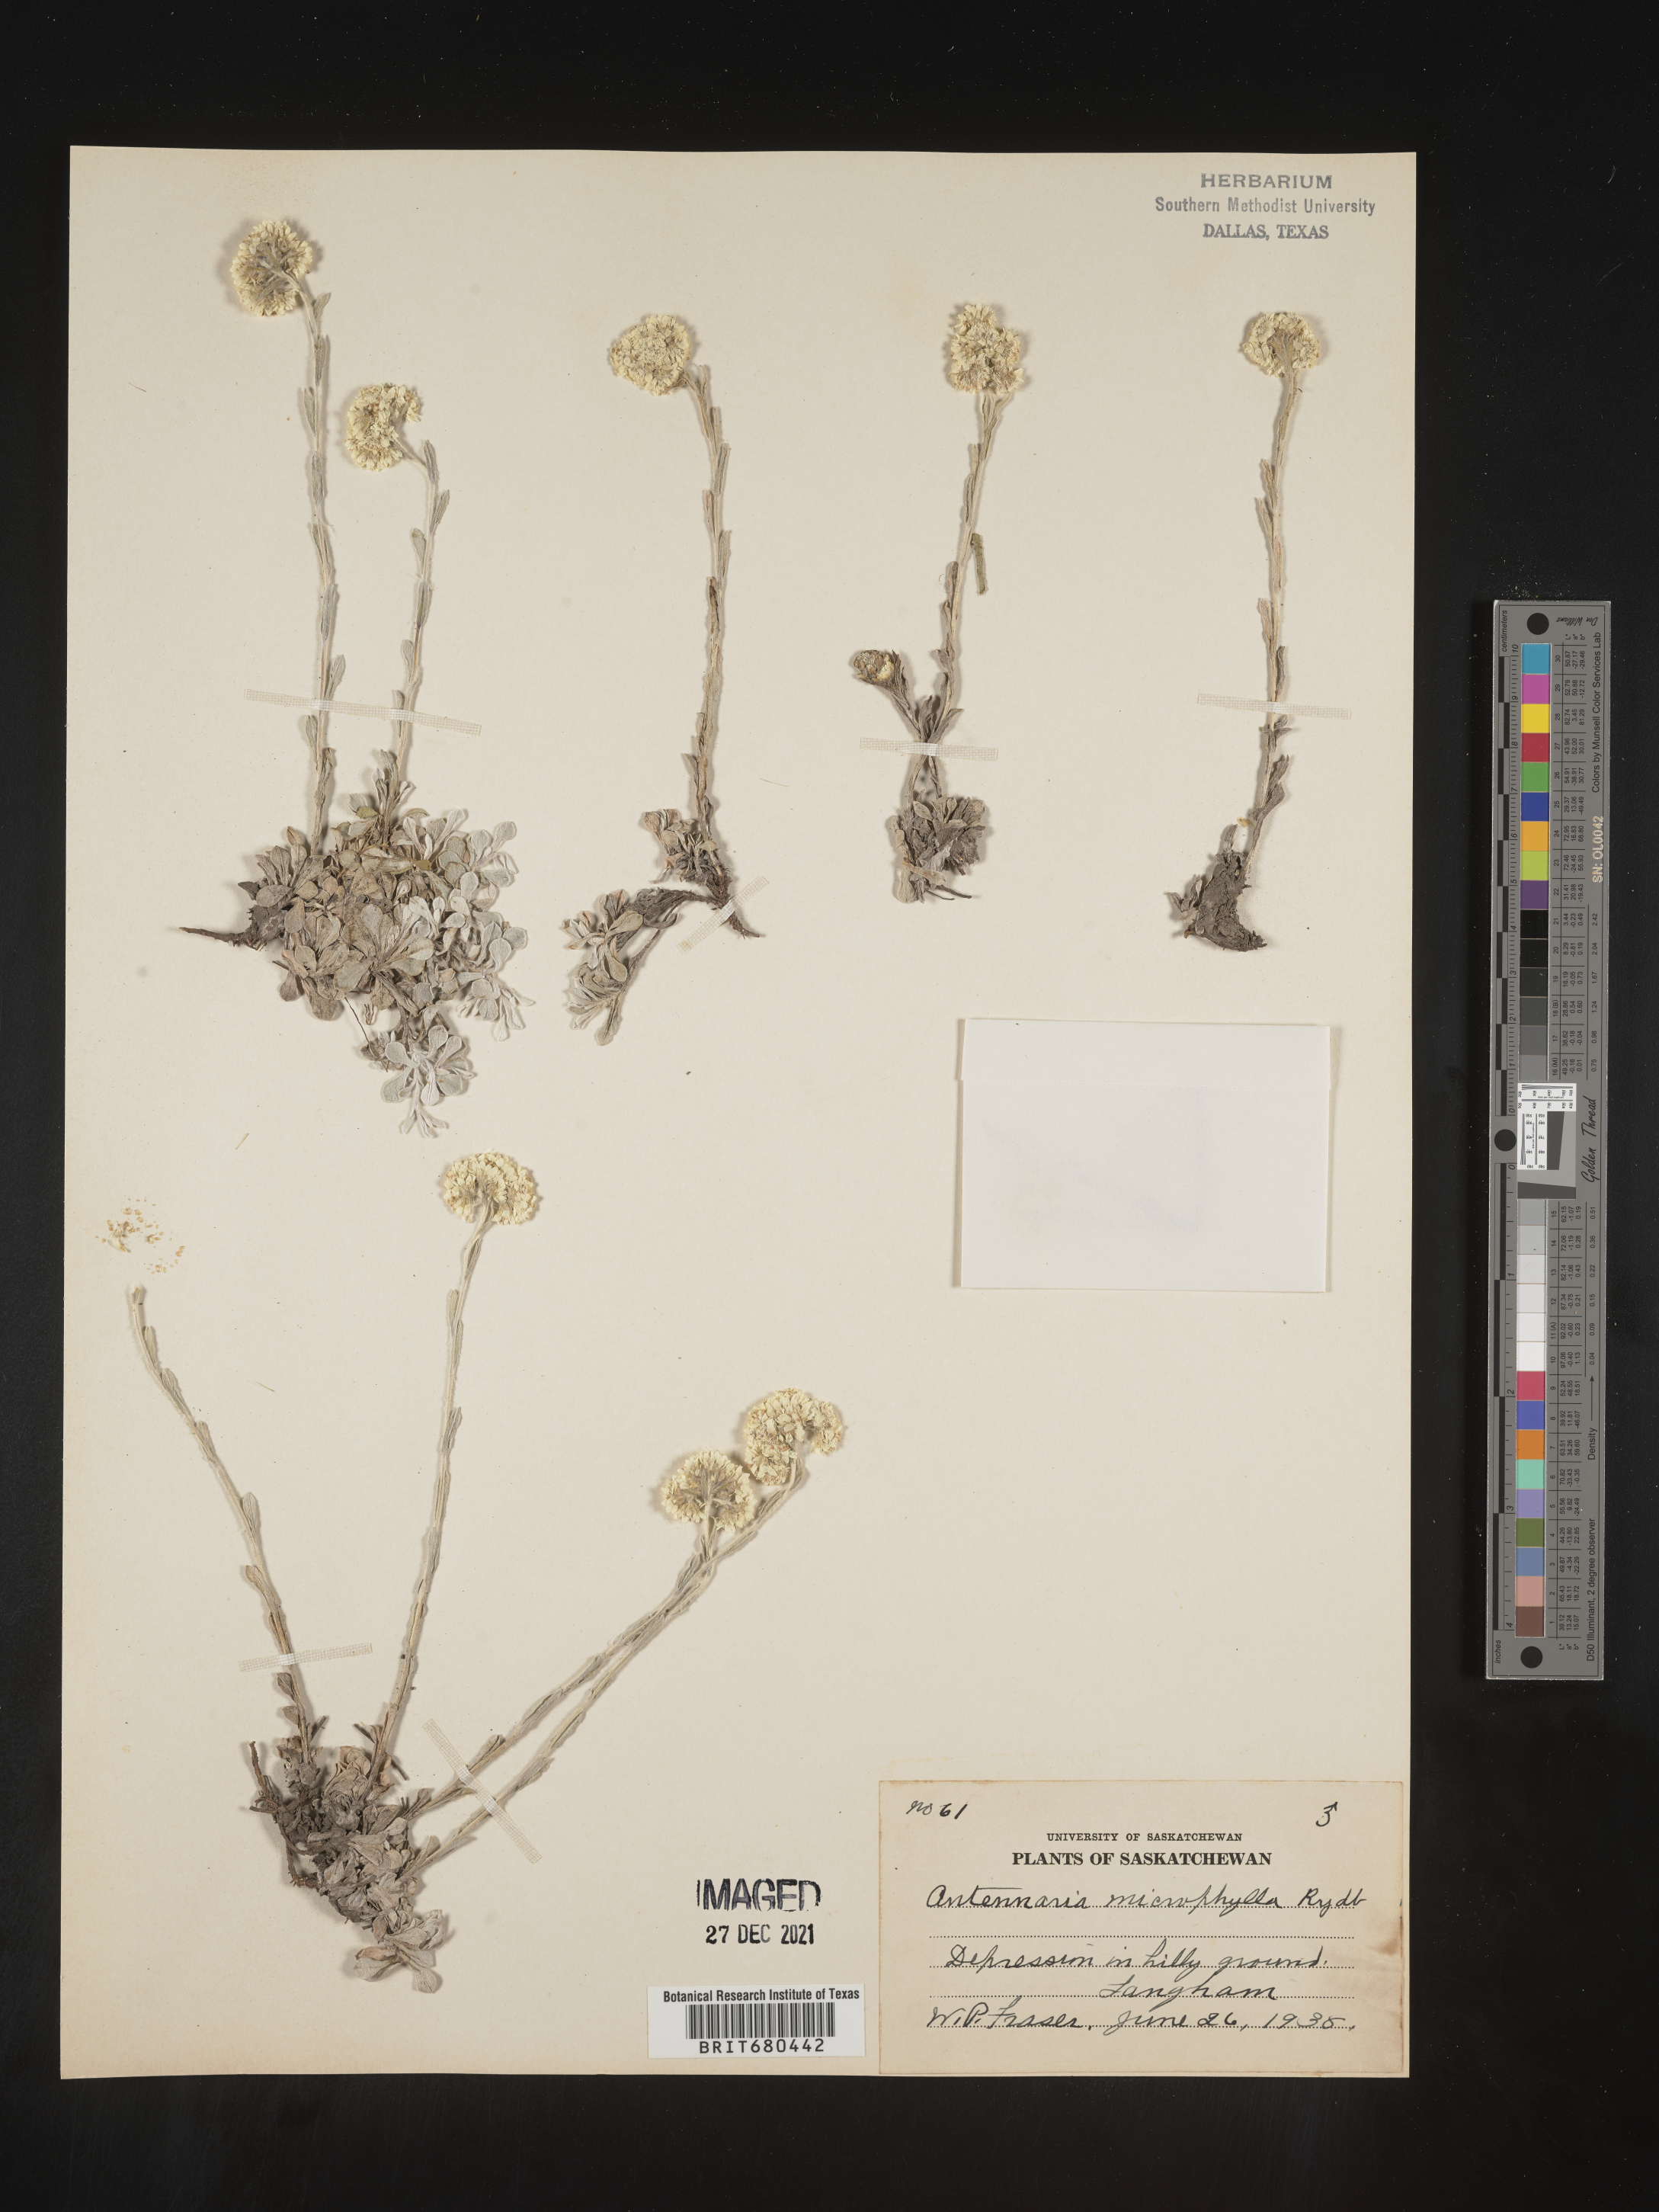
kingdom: Plantae
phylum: Tracheophyta
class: Magnoliopsida
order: Asterales
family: Asteraceae
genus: Antennaria
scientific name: Antennaria rosea
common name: Rosy pussytoes
